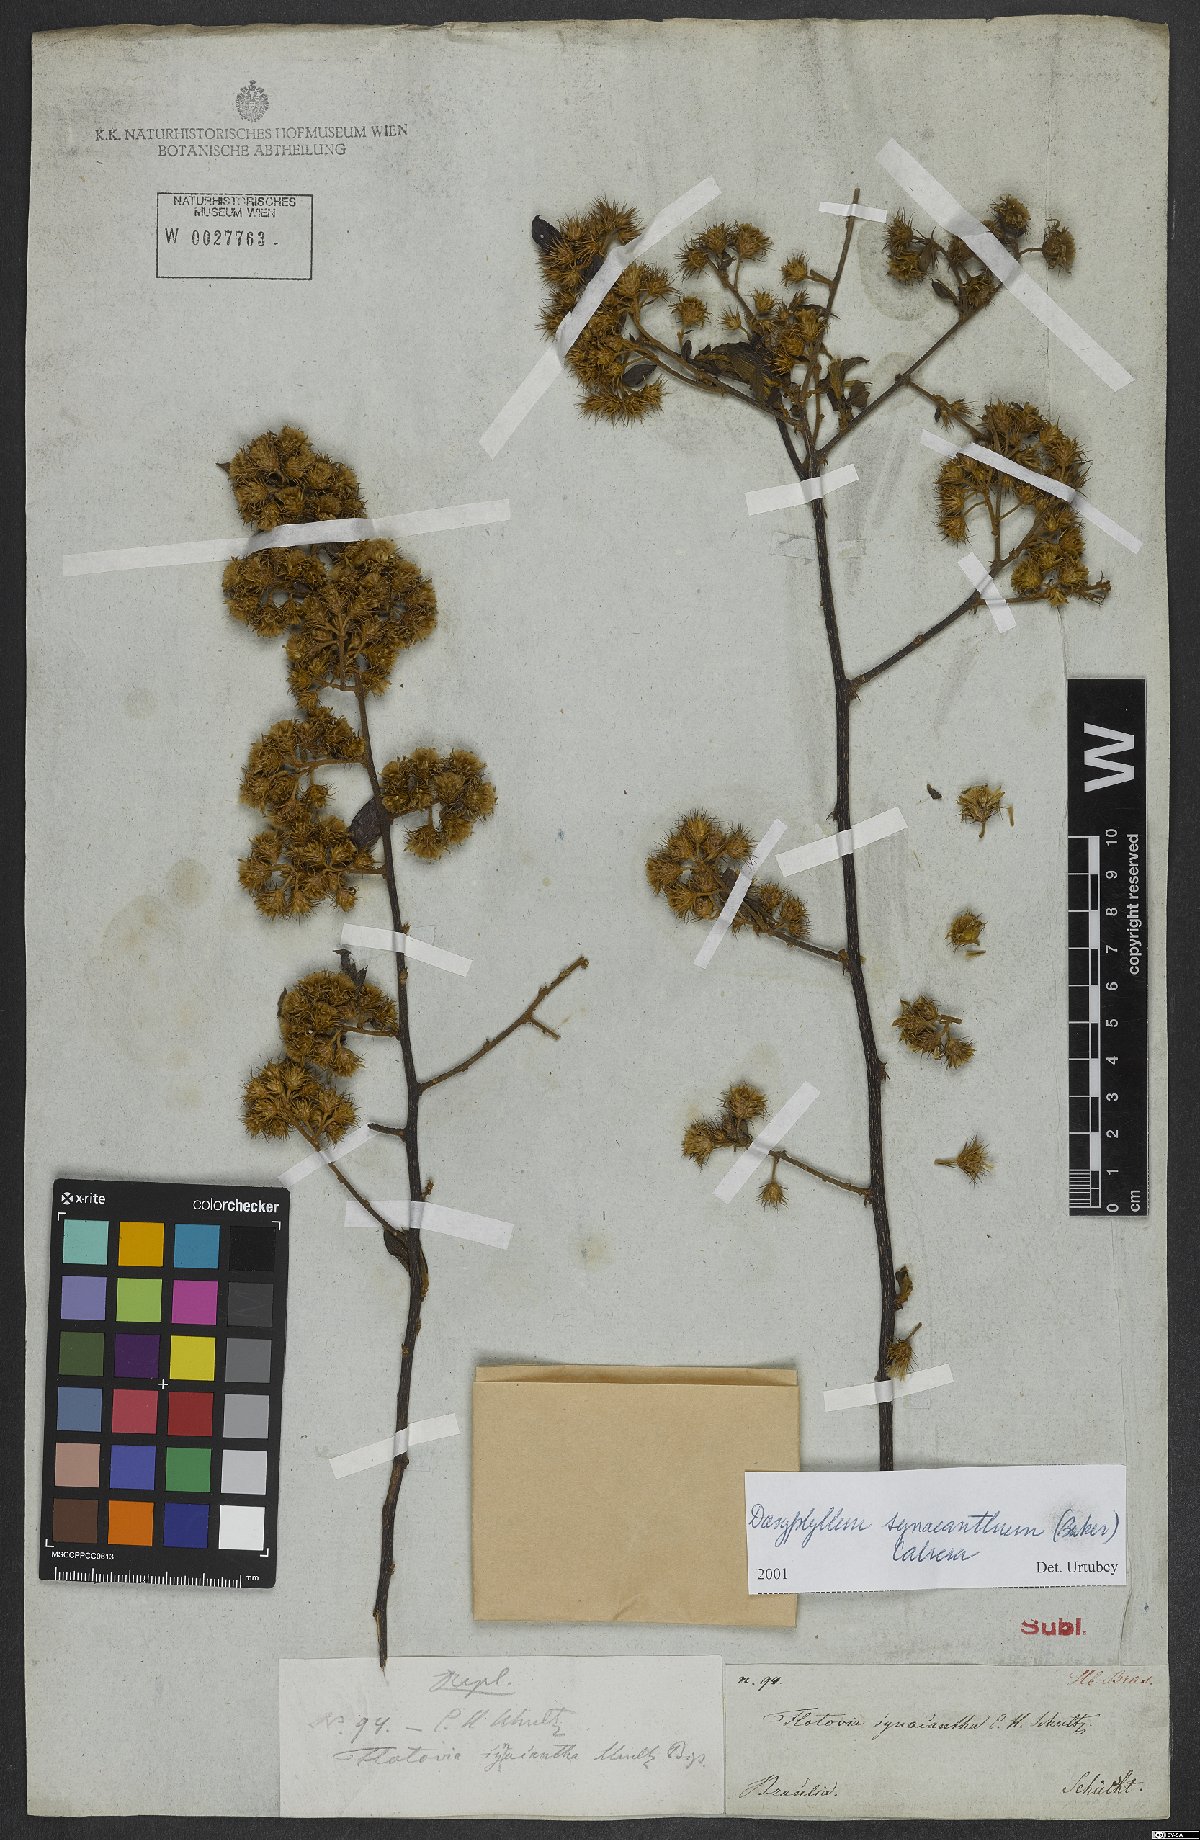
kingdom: Plantae
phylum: Tracheophyta
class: Magnoliopsida
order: Asterales
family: Asteraceae
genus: Dasyphyllum
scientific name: Dasyphyllum synacanthum
